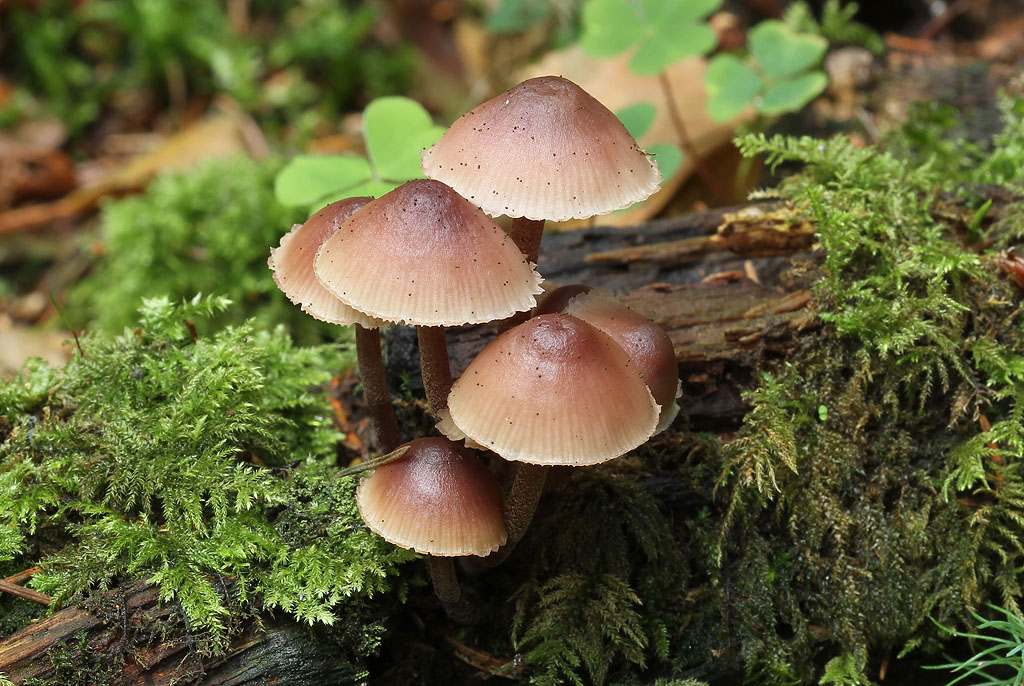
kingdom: Fungi
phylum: Basidiomycota
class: Agaricomycetes
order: Agaricales
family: Mycenaceae
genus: Mycena
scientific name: Mycena haematopus
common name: blødende huesvamp
